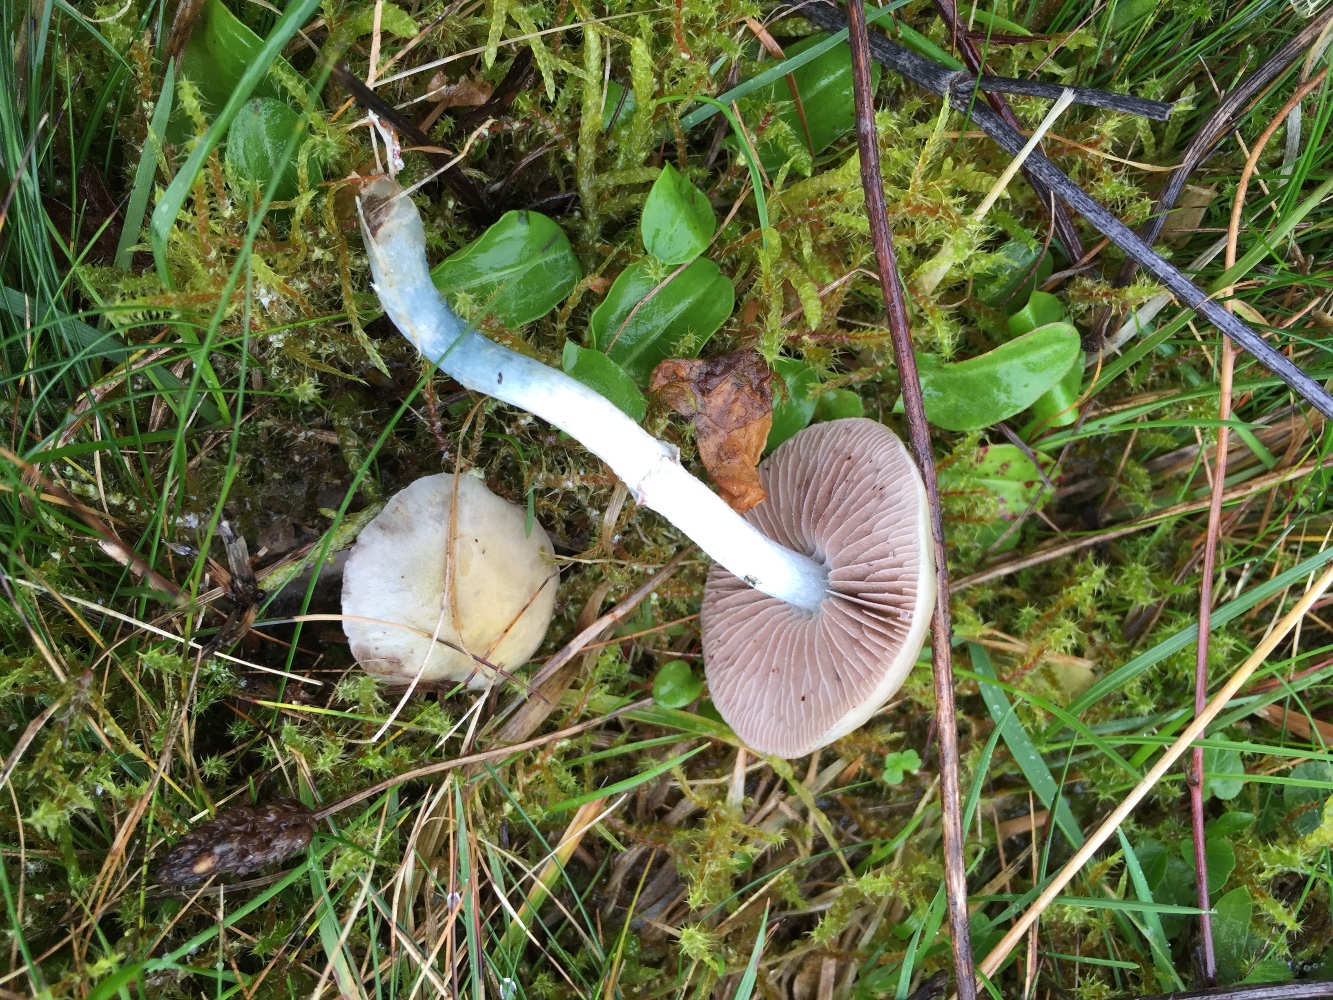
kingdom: Fungi
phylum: Basidiomycota
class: Agaricomycetes
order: Agaricales
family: Strophariaceae
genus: Stropharia
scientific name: Stropharia cyanea
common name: blågrøn bredblad
